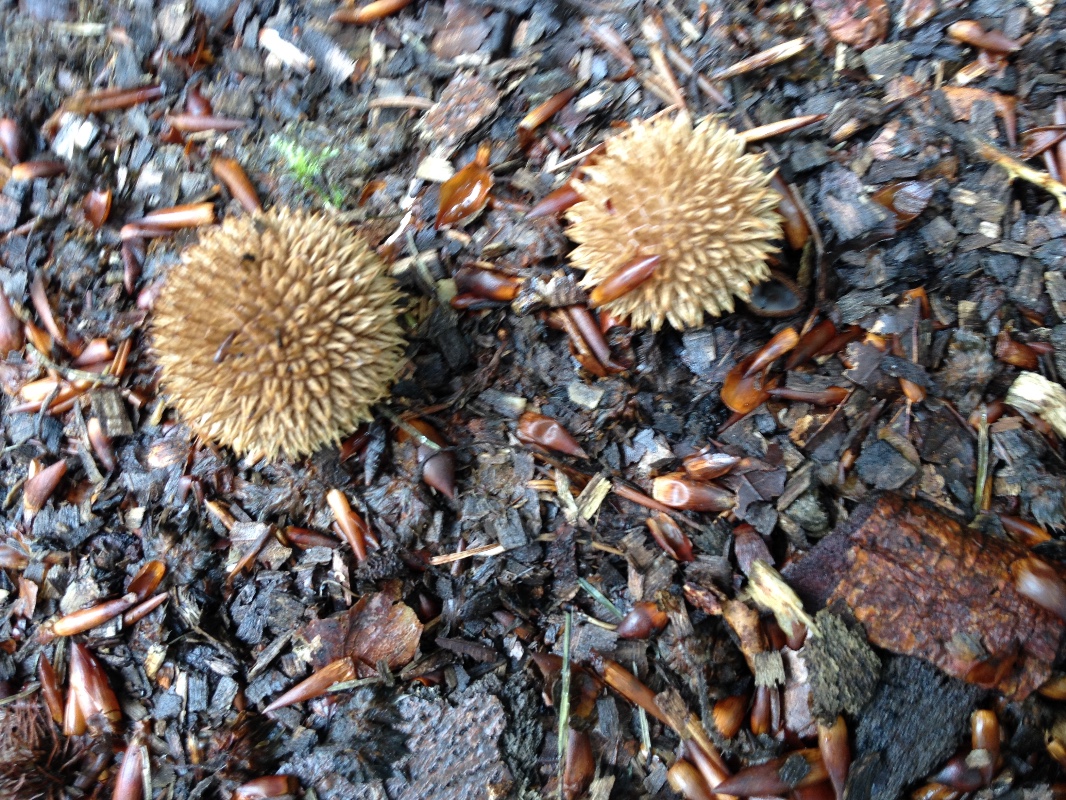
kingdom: Fungi
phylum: Basidiomycota
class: Agaricomycetes
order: Agaricales
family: Lycoperdaceae
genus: Lycoperdon
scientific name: Lycoperdon echinatum
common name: pindsvine-støvbold
